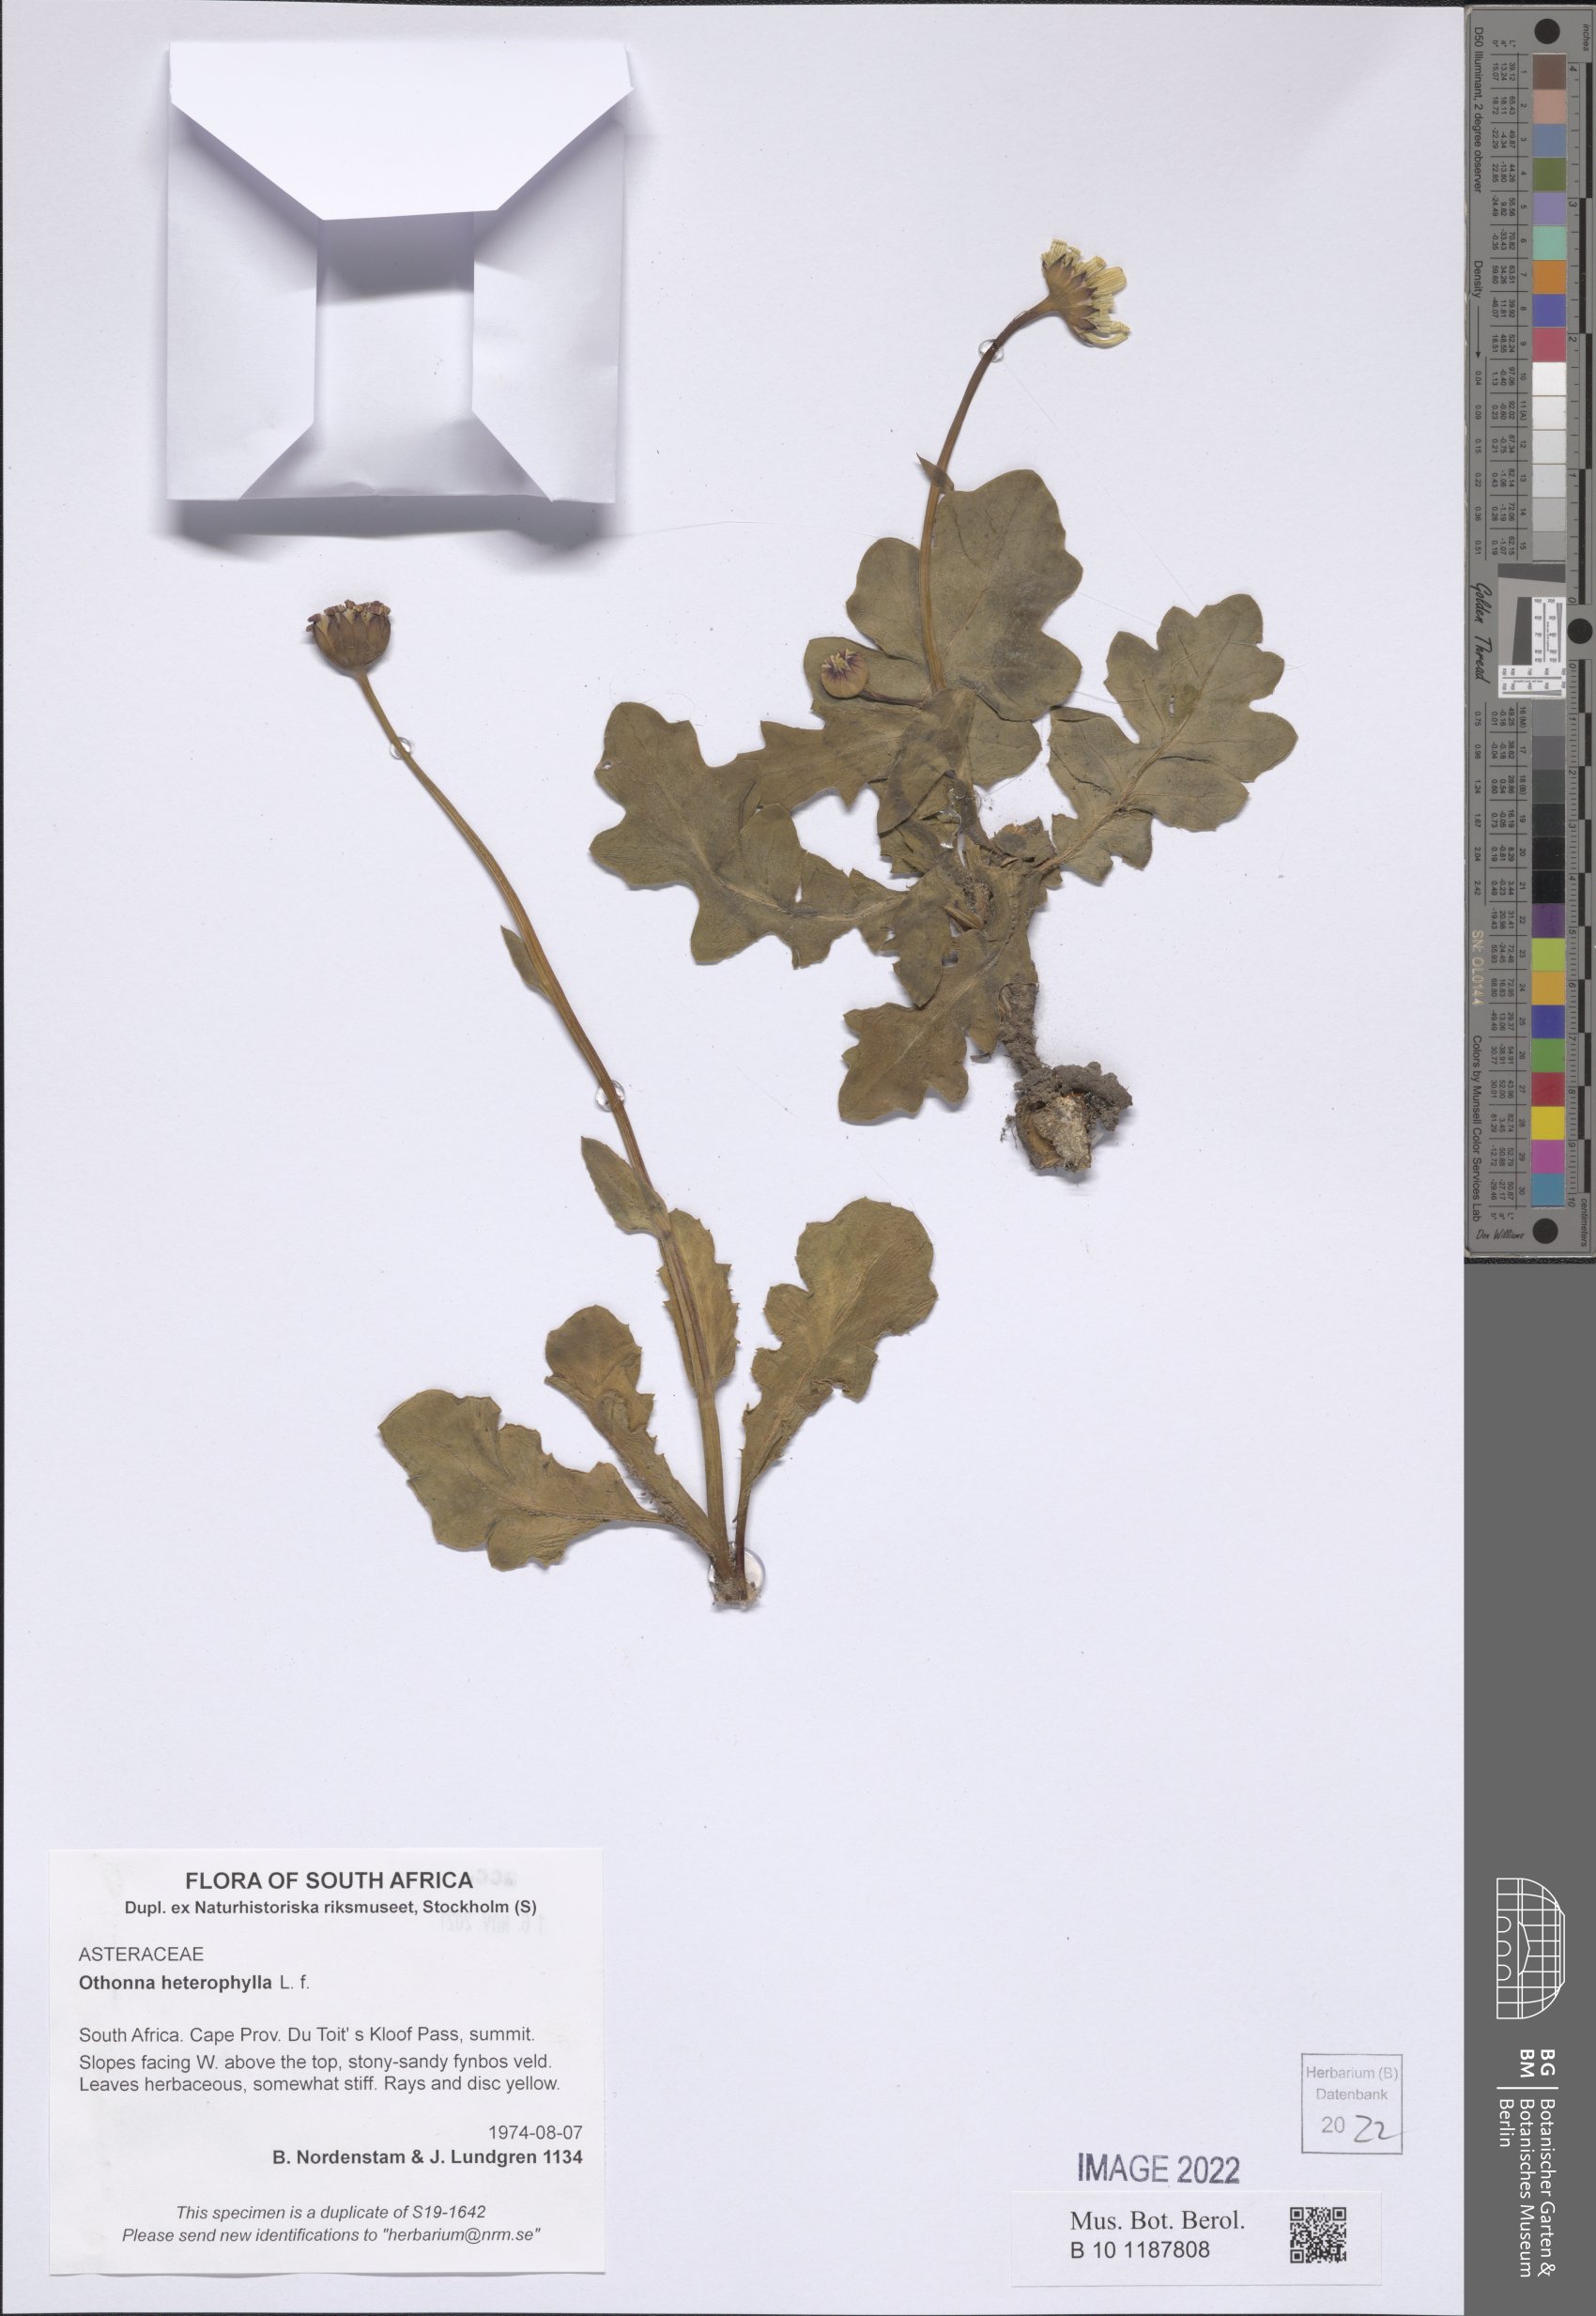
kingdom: Plantae
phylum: Tracheophyta
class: Magnoliopsida
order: Asterales
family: Asteraceae
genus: Othonna
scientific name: Othonna heterophylla
